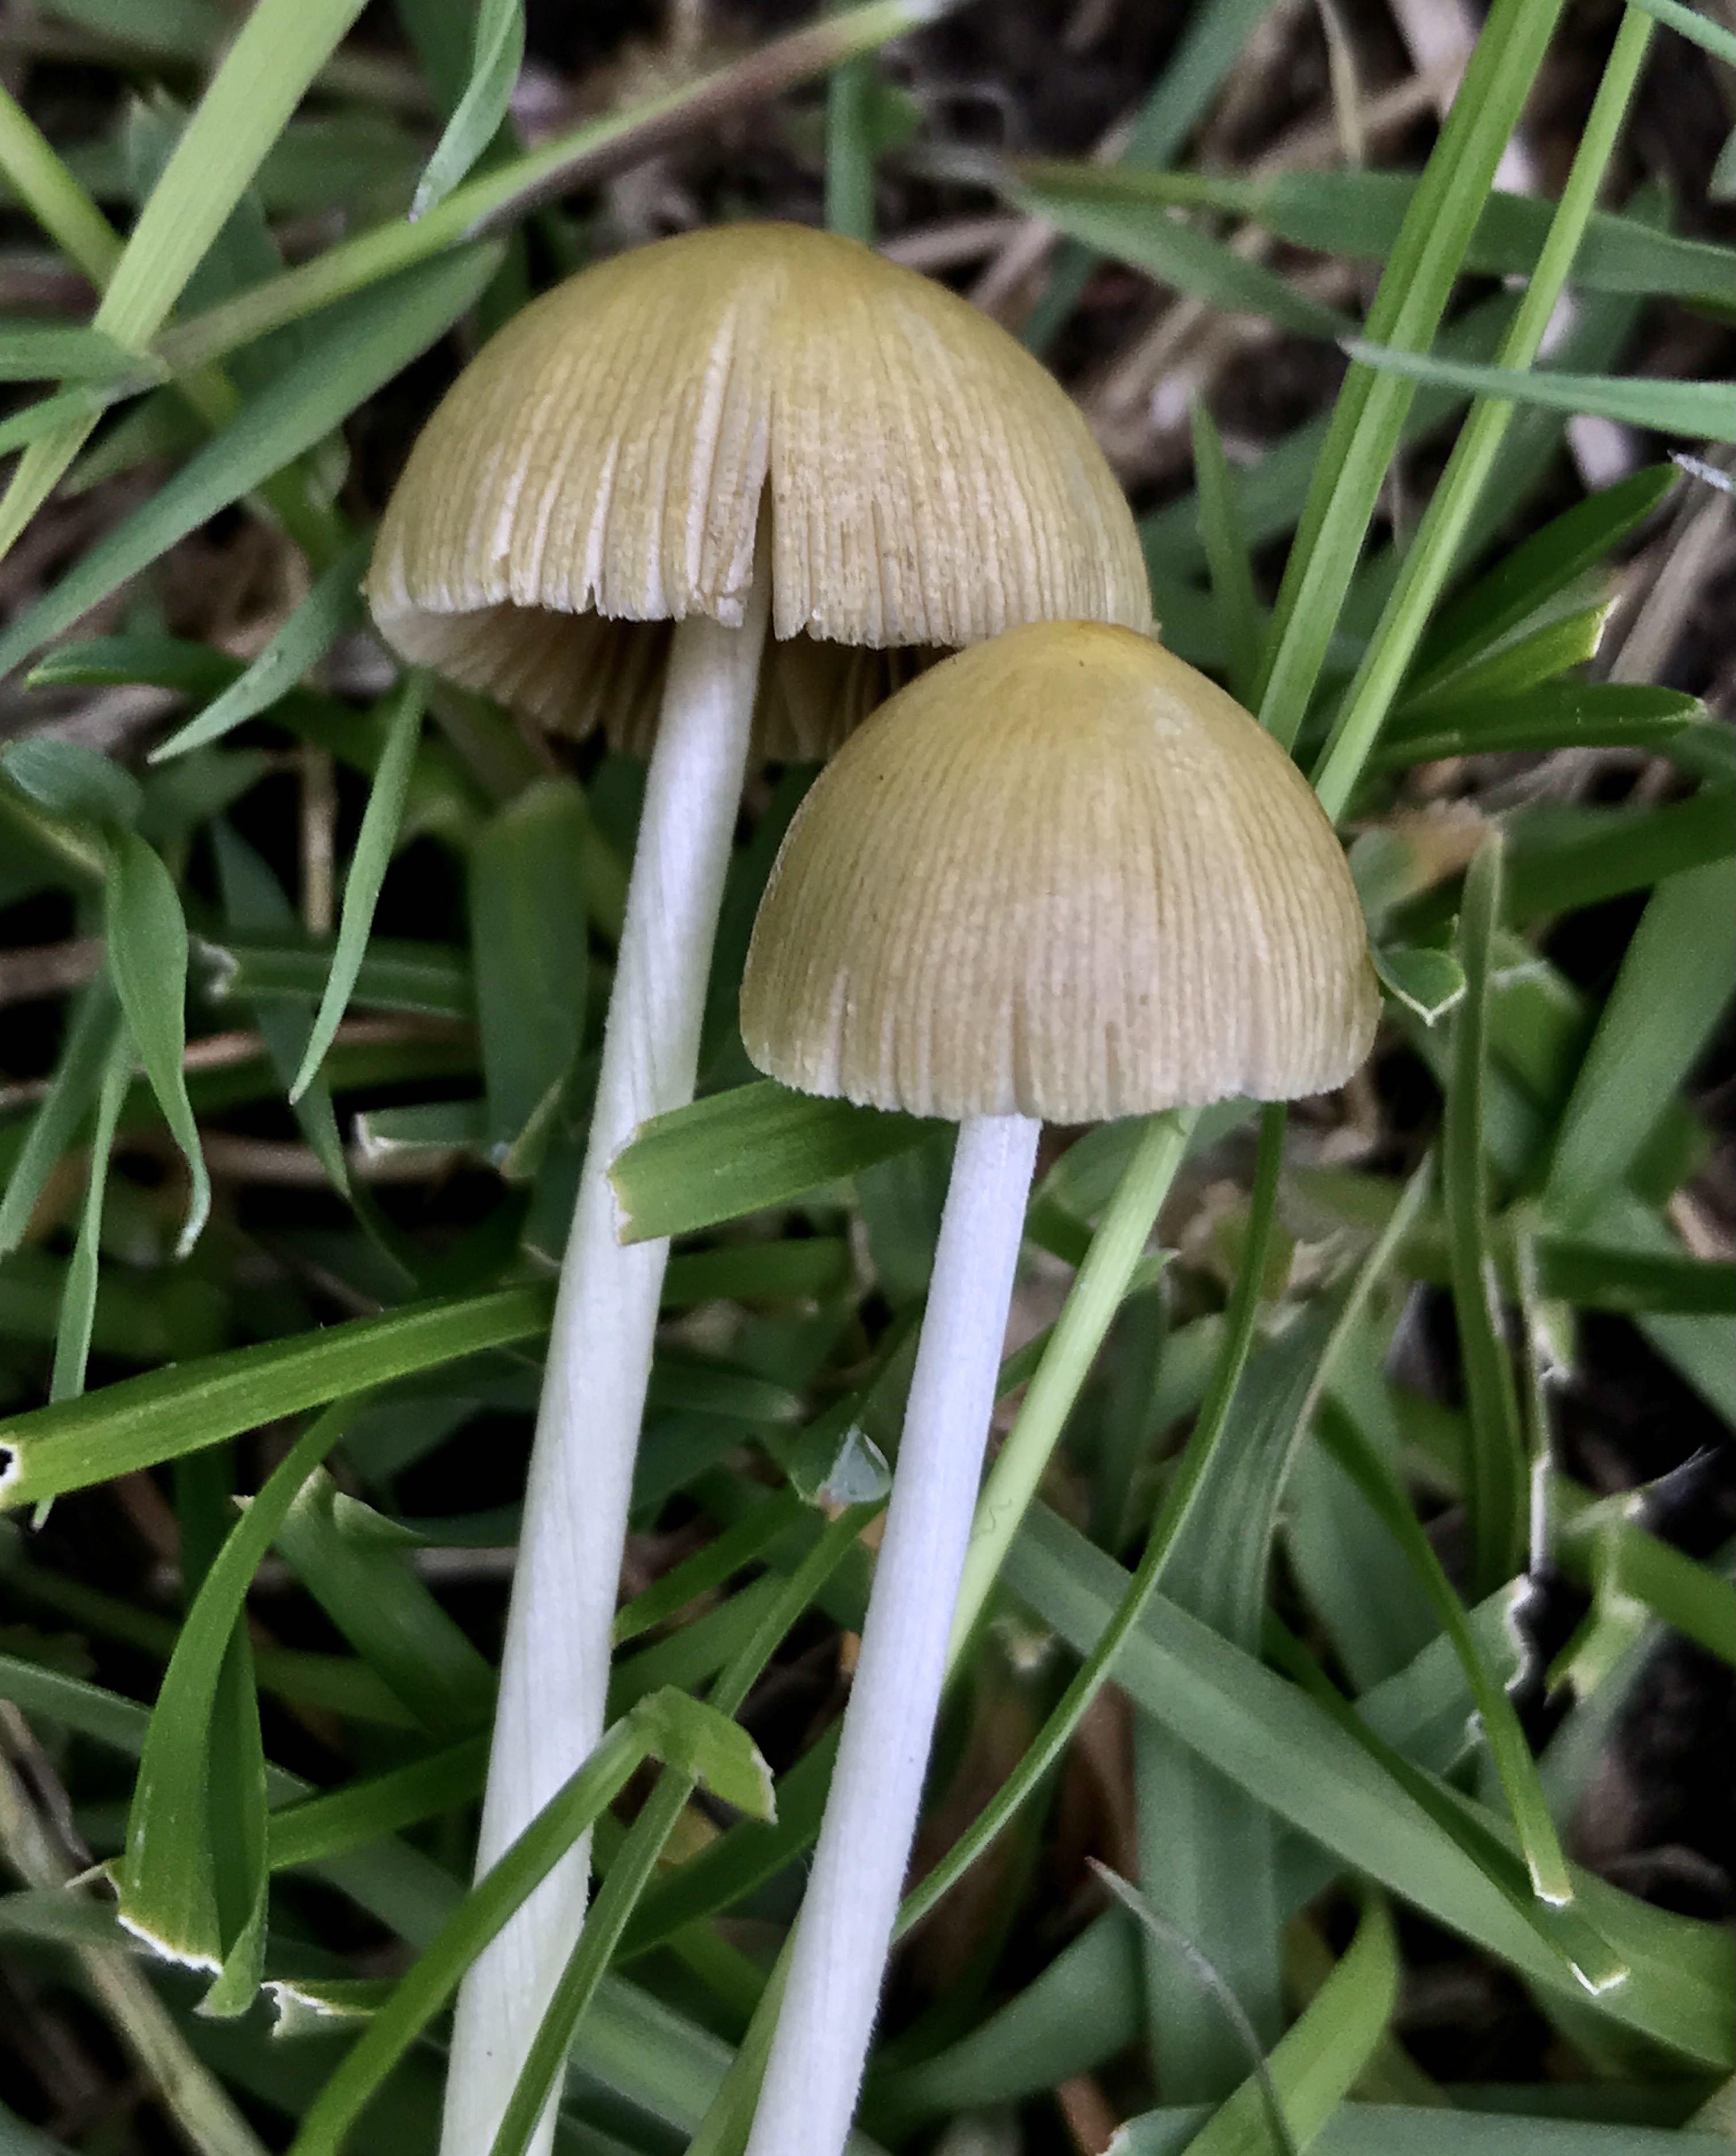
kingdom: Fungi
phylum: Basidiomycota
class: Agaricomycetes
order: Agaricales
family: Bolbitiaceae
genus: Bolbitius
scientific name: Bolbitius titubans
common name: almindelig gulhat
